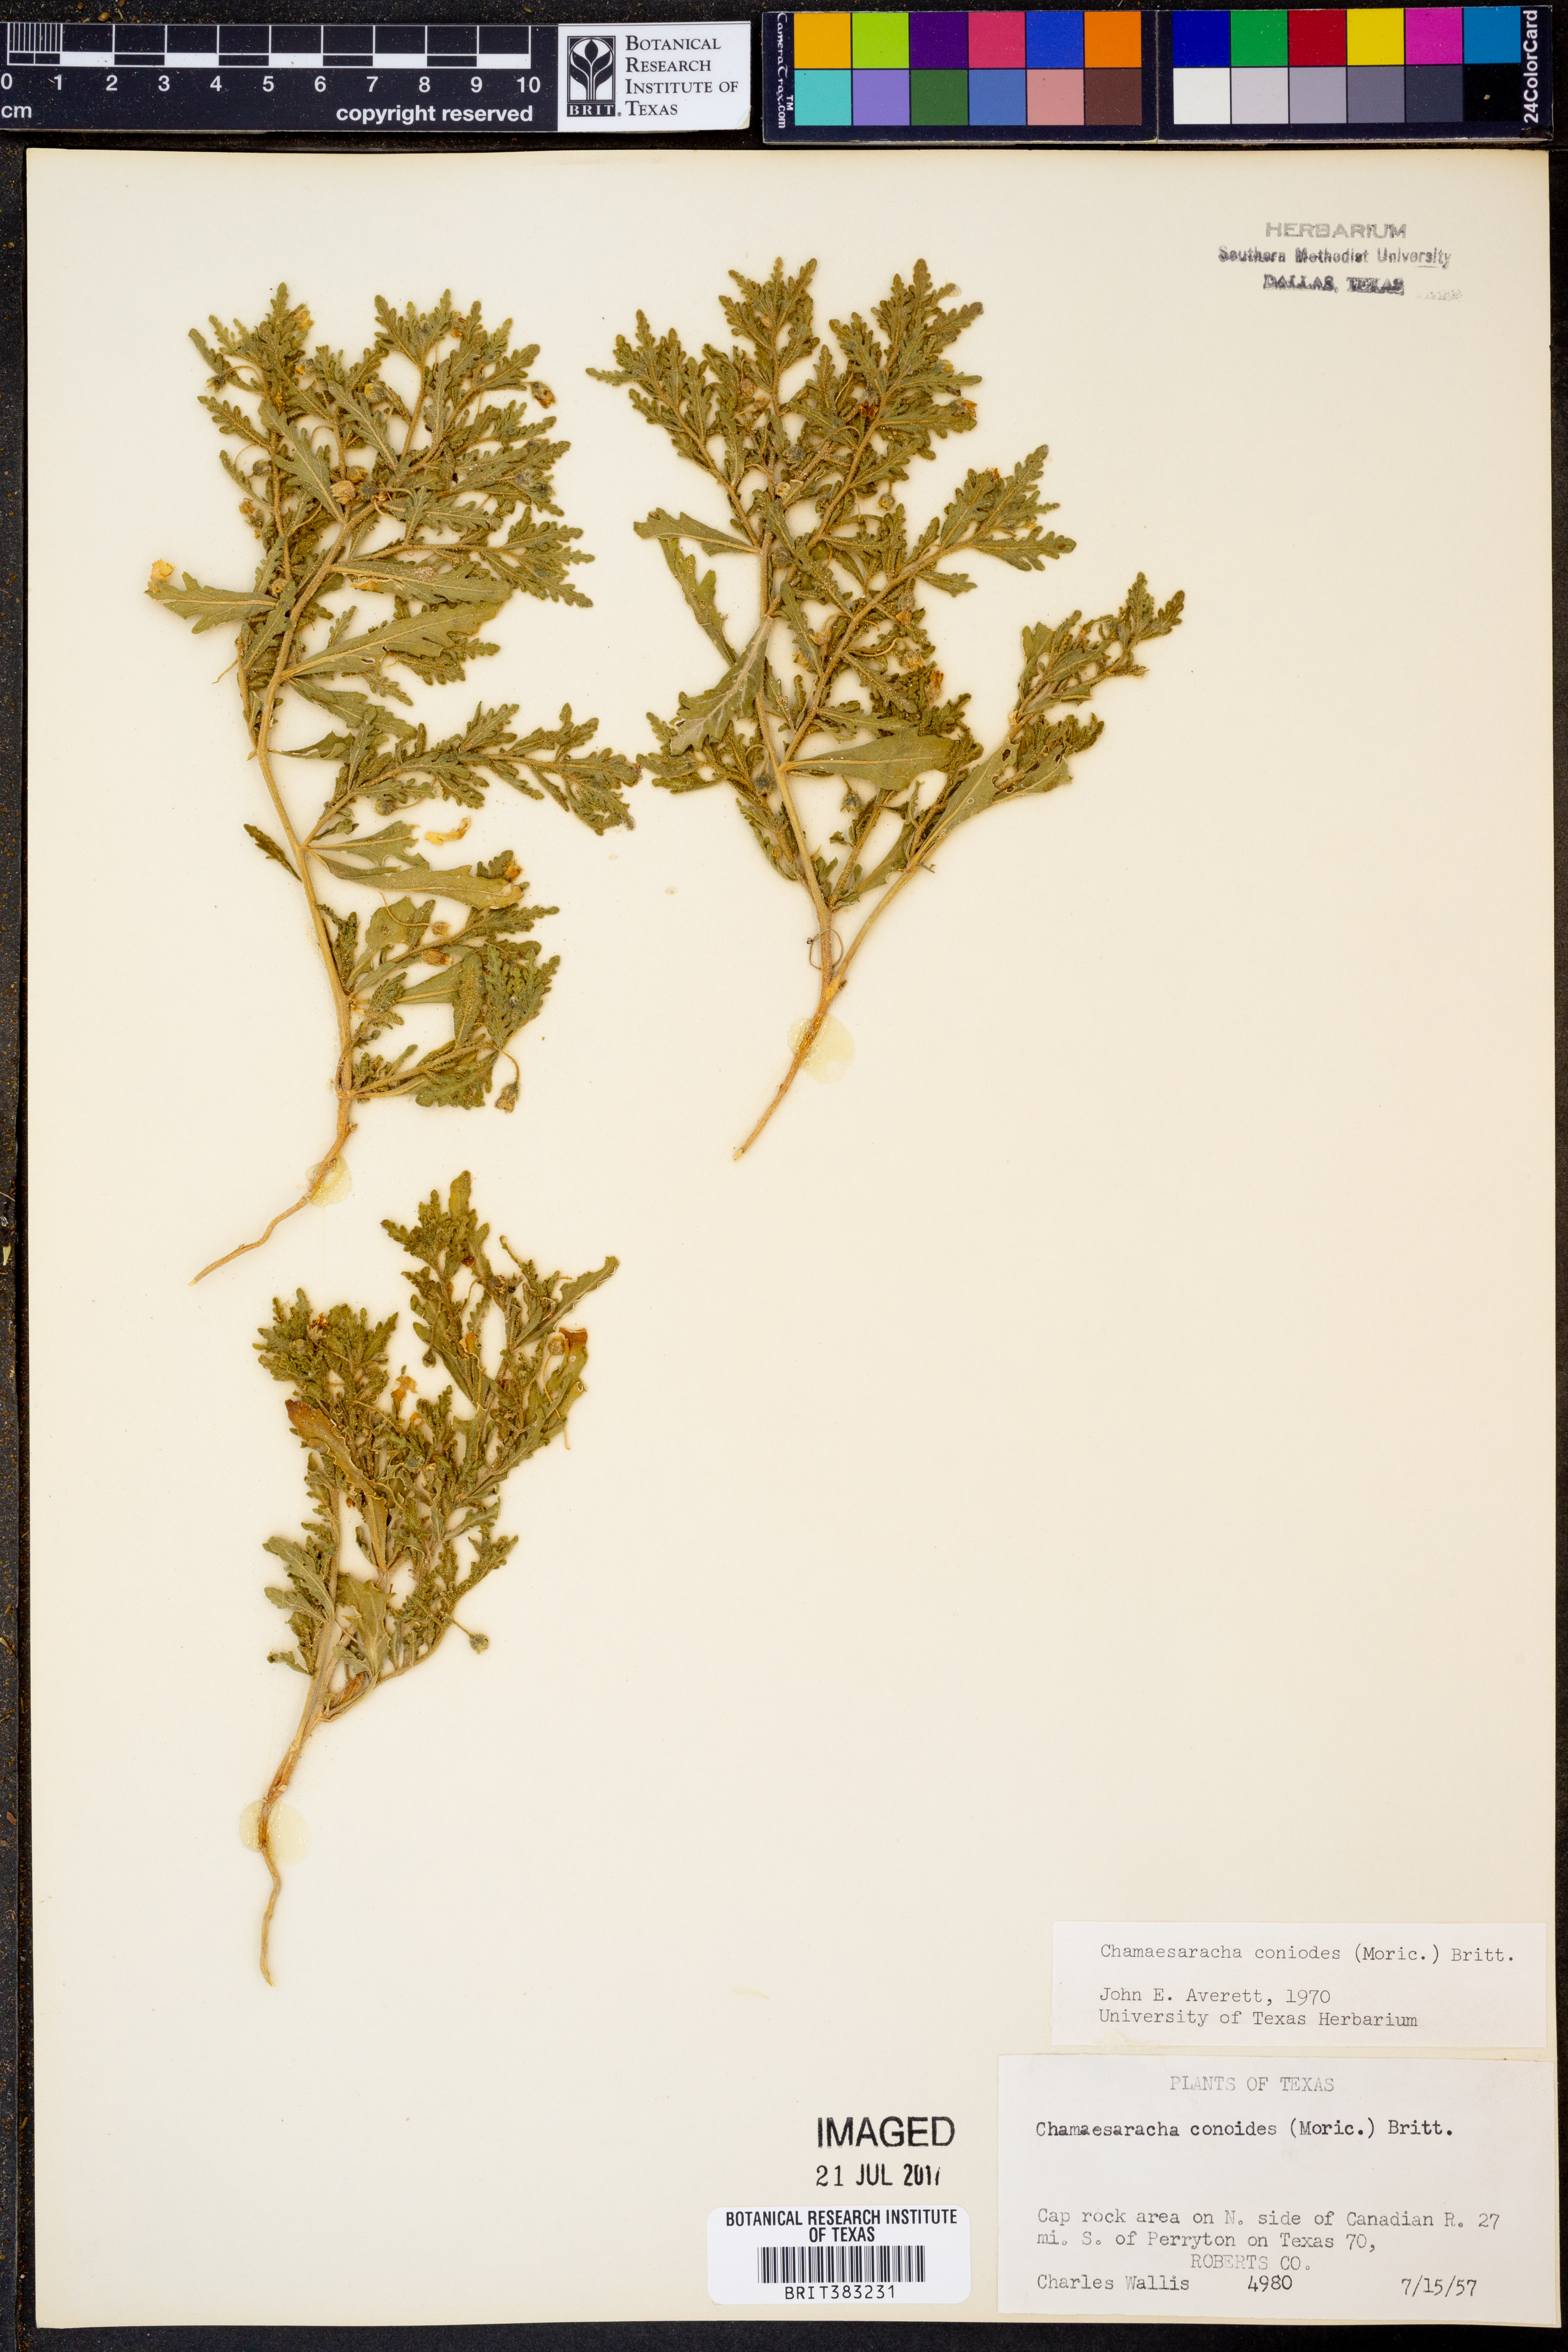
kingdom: Plantae
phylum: Tracheophyta
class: Magnoliopsida
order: Solanales
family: Solanaceae
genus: Chamaesaracha
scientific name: Chamaesaracha coniodes
